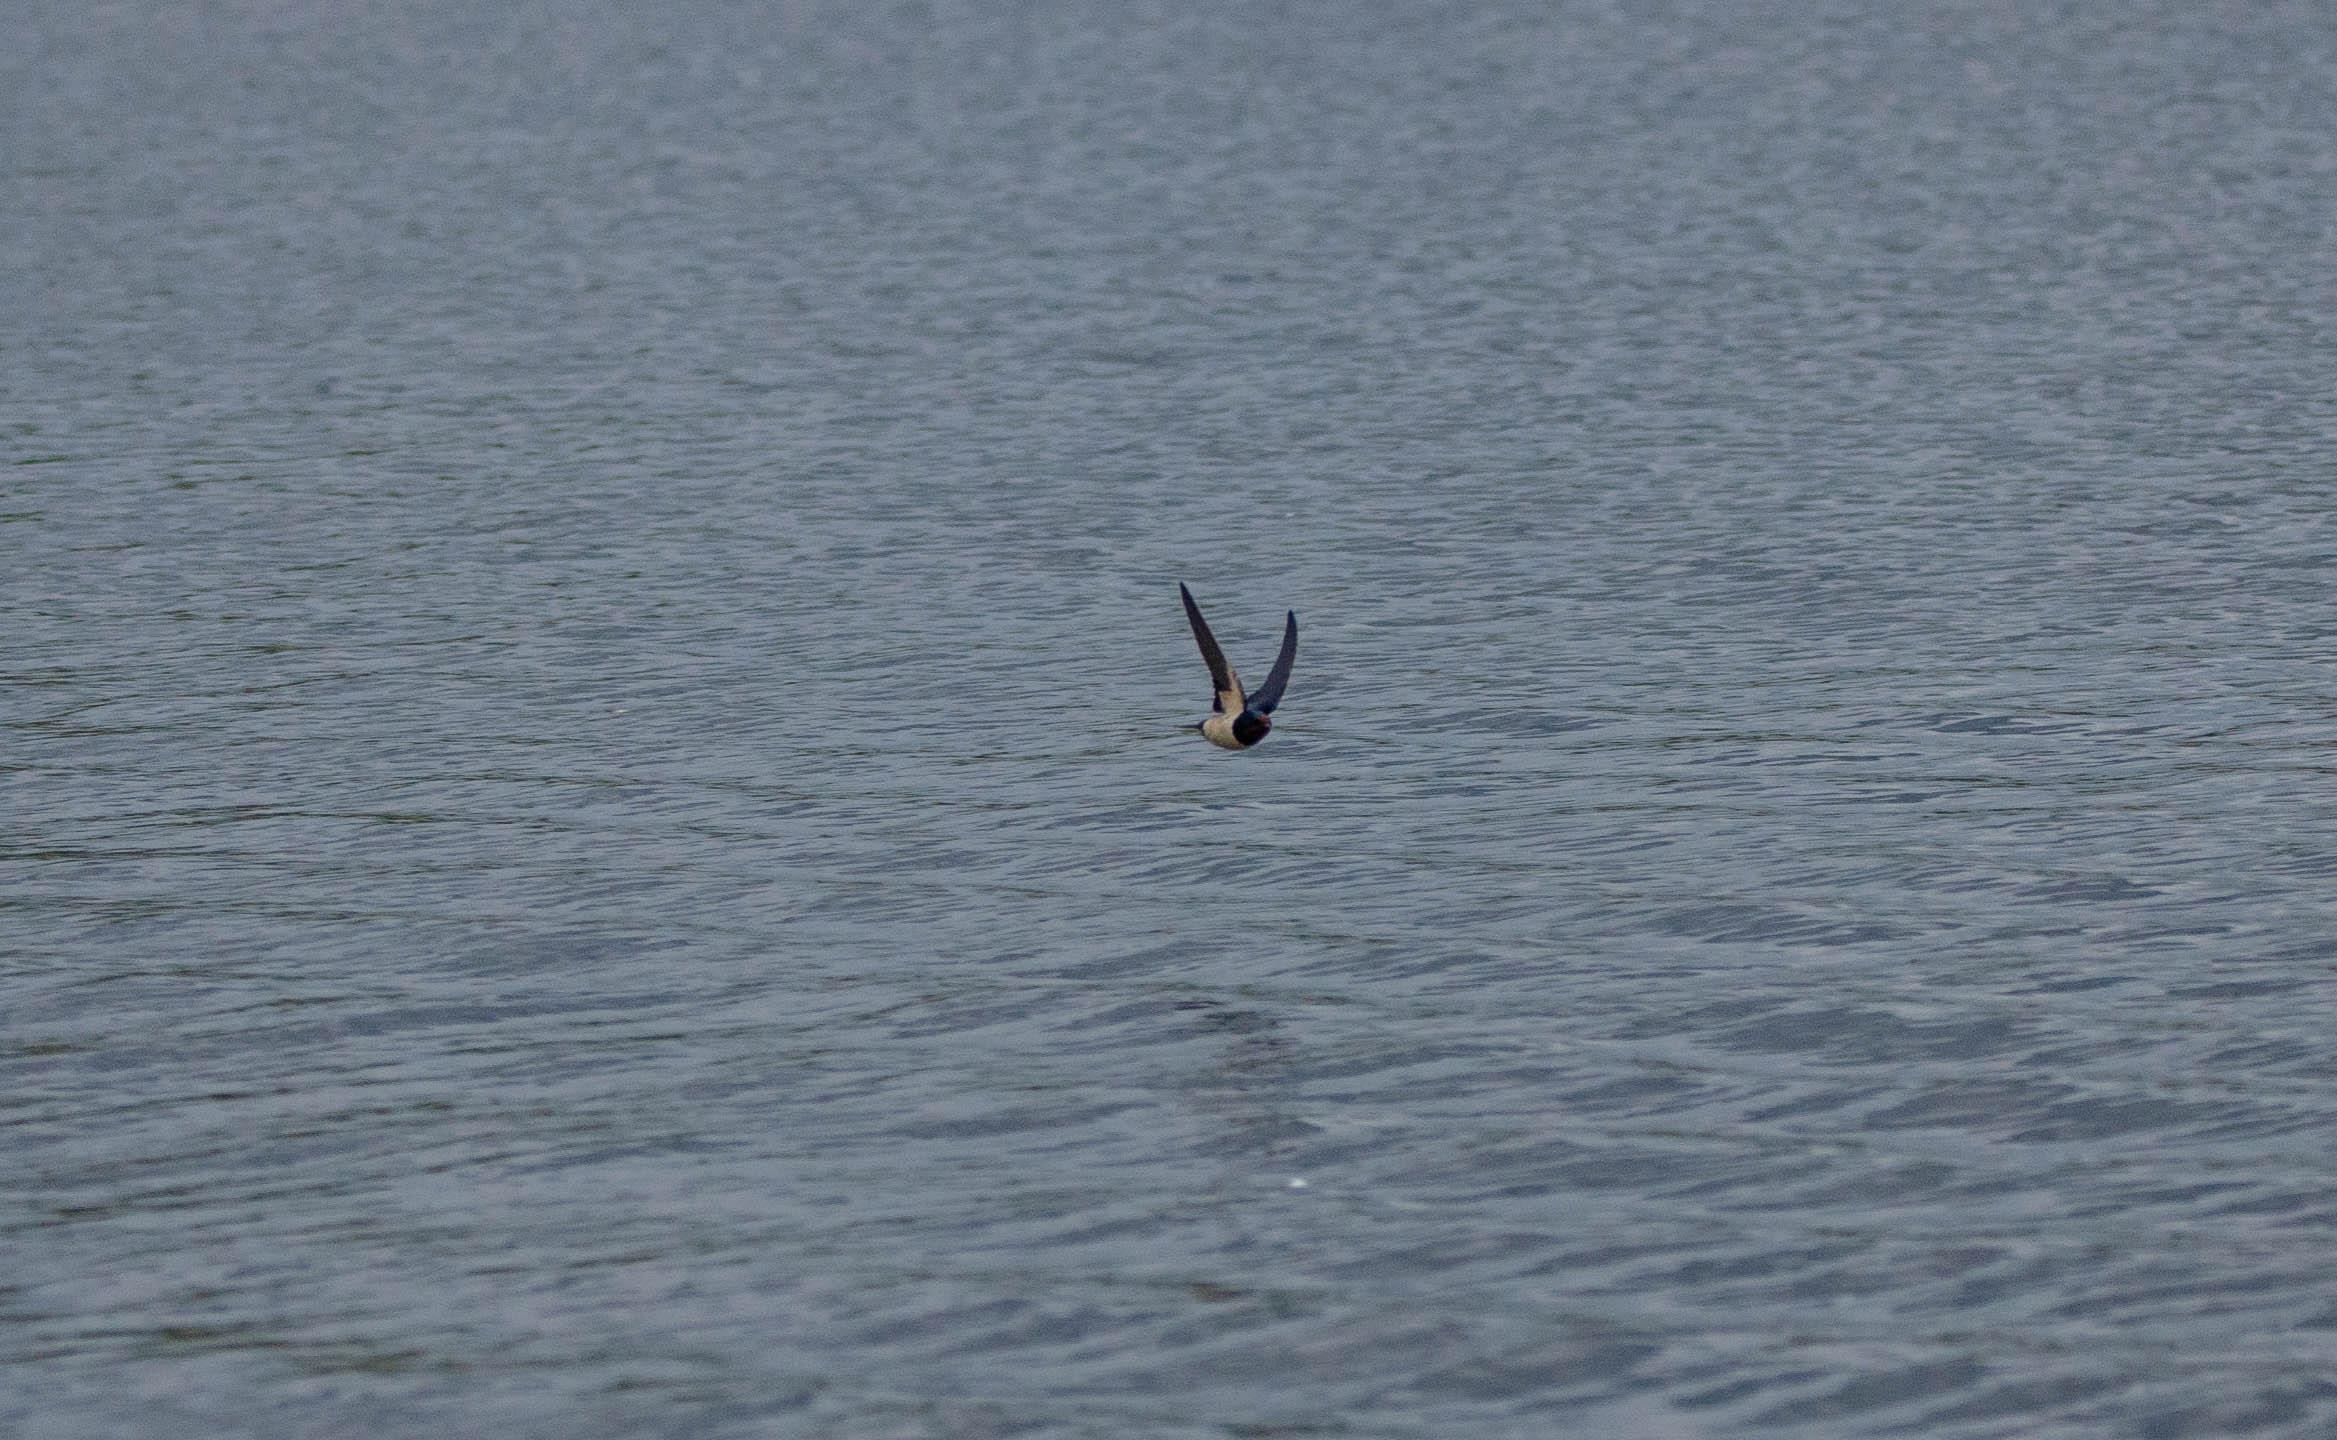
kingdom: Animalia
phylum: Chordata
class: Aves
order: Passeriformes
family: Hirundinidae
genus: Hirundo
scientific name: Hirundo rustica
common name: Landsvale
